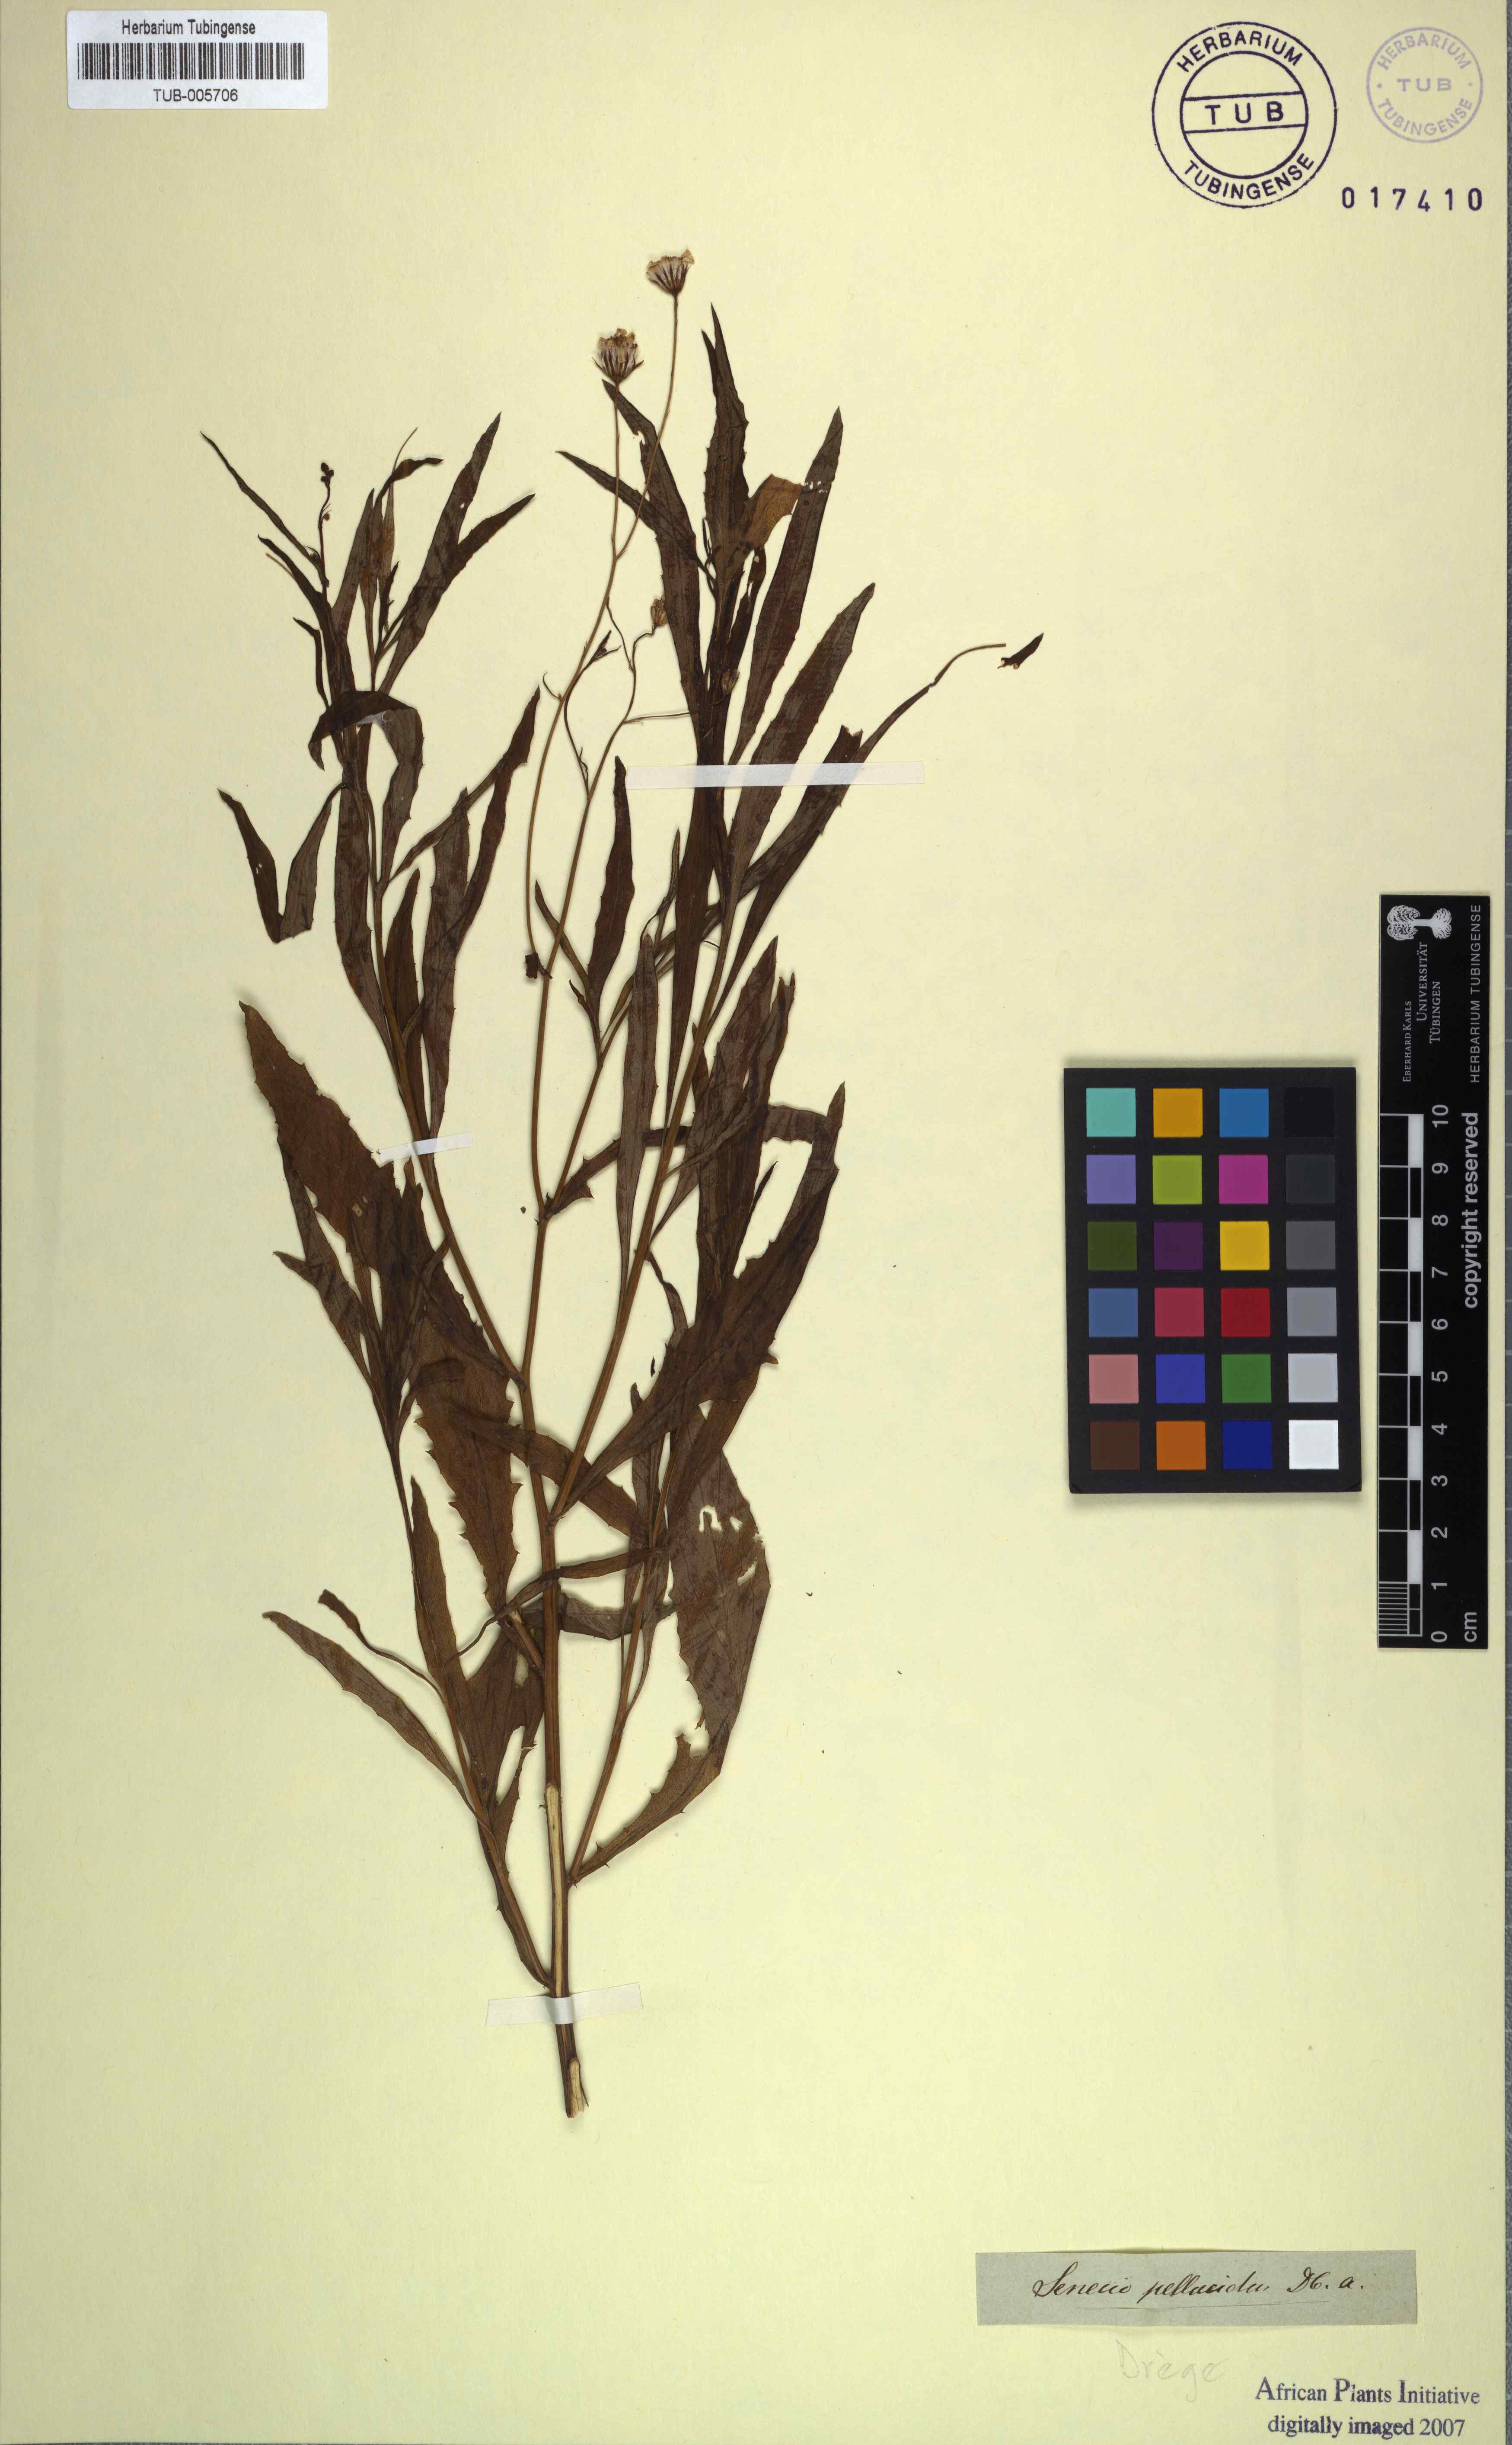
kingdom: Plantae
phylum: Tracheophyta
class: Magnoliopsida
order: Asterales
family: Asteraceae
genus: Senecio
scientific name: Senecio pellucidus
